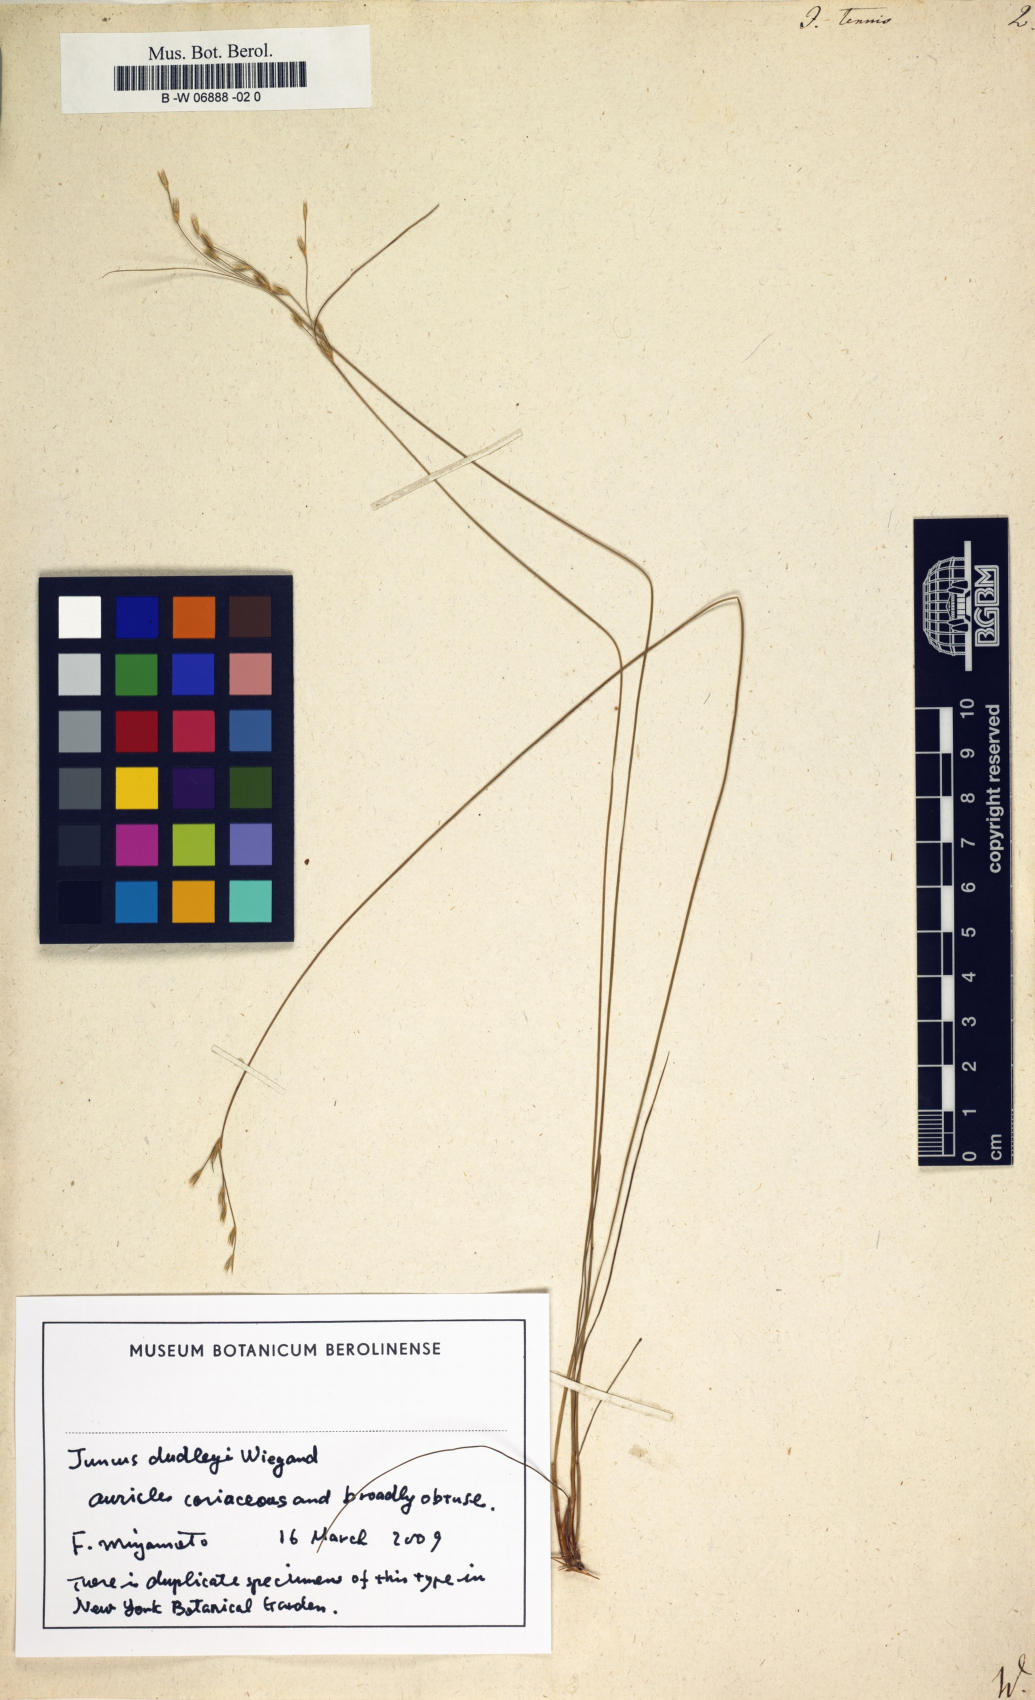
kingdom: Plantae
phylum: Tracheophyta
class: Liliopsida
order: Poales
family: Juncaceae
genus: Juncus
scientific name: Juncus tenuis
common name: Slender rush
